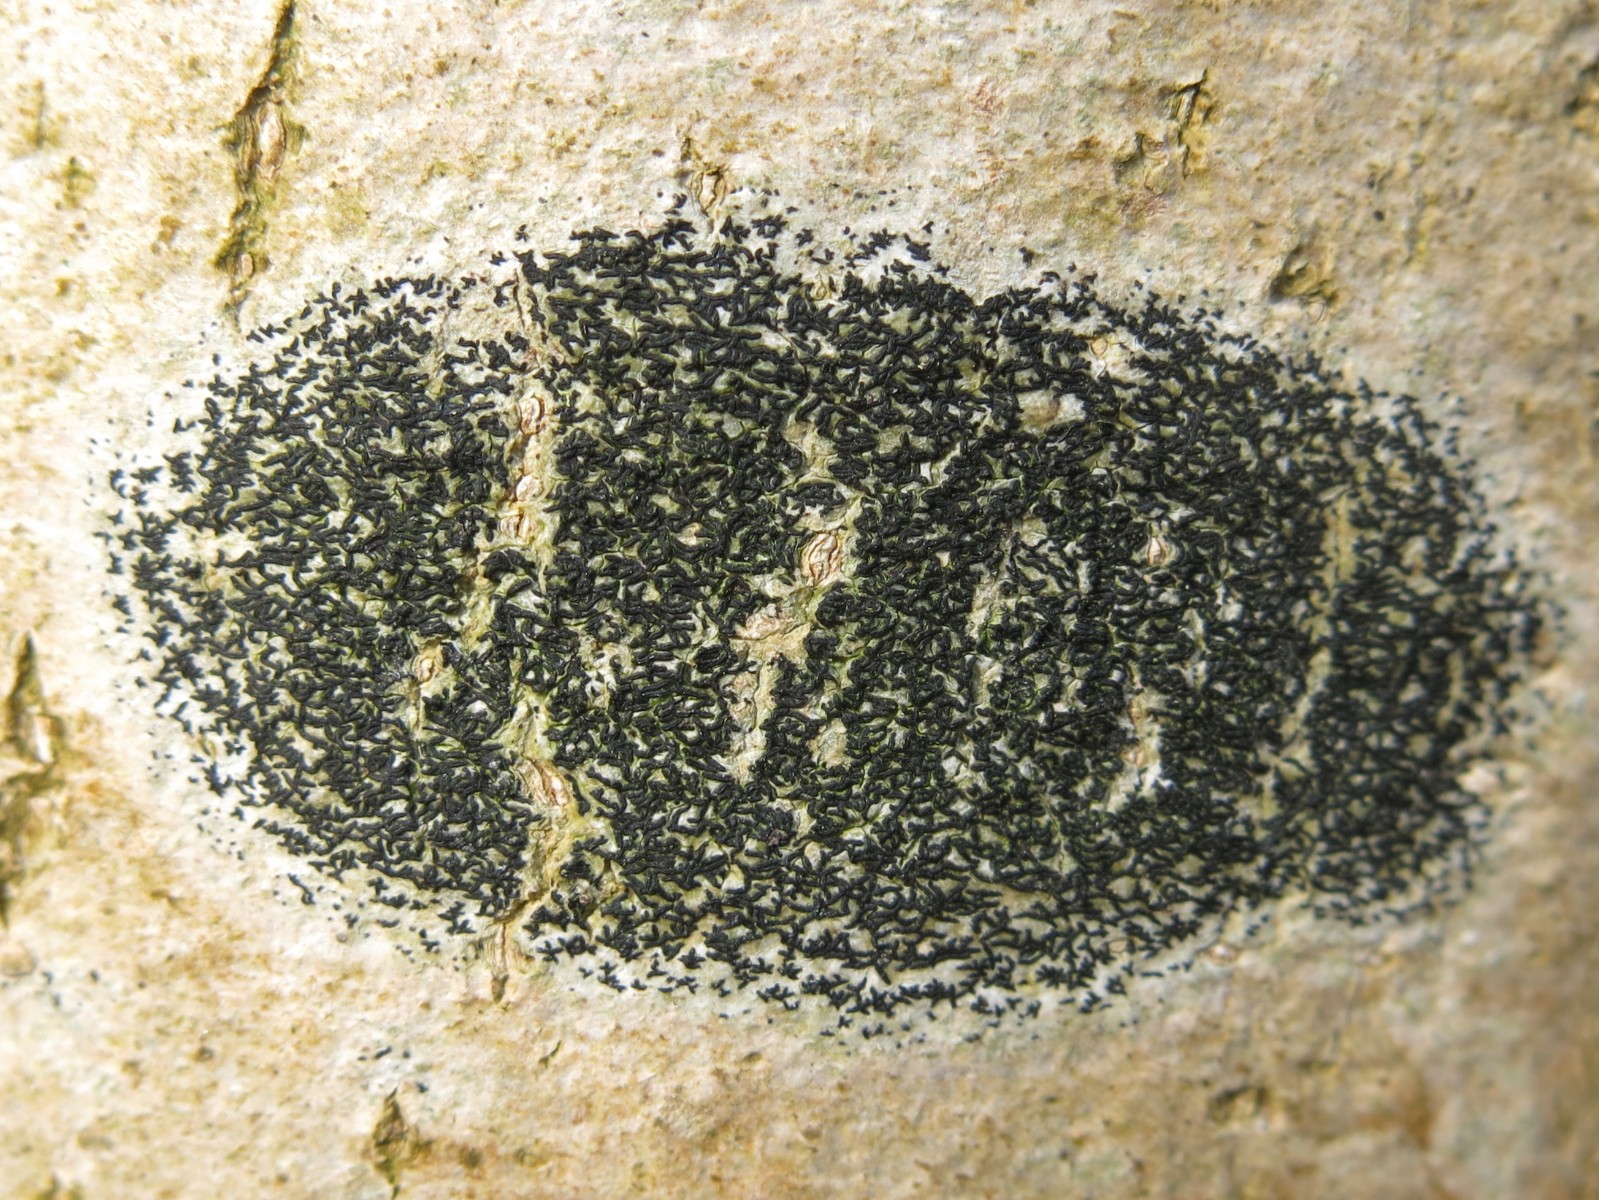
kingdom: Fungi
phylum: Ascomycota
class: Arthoniomycetes
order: Arthoniales
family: Arthoniaceae
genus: Arthonia
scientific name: Arthonia atra
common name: sort bogstavlav
